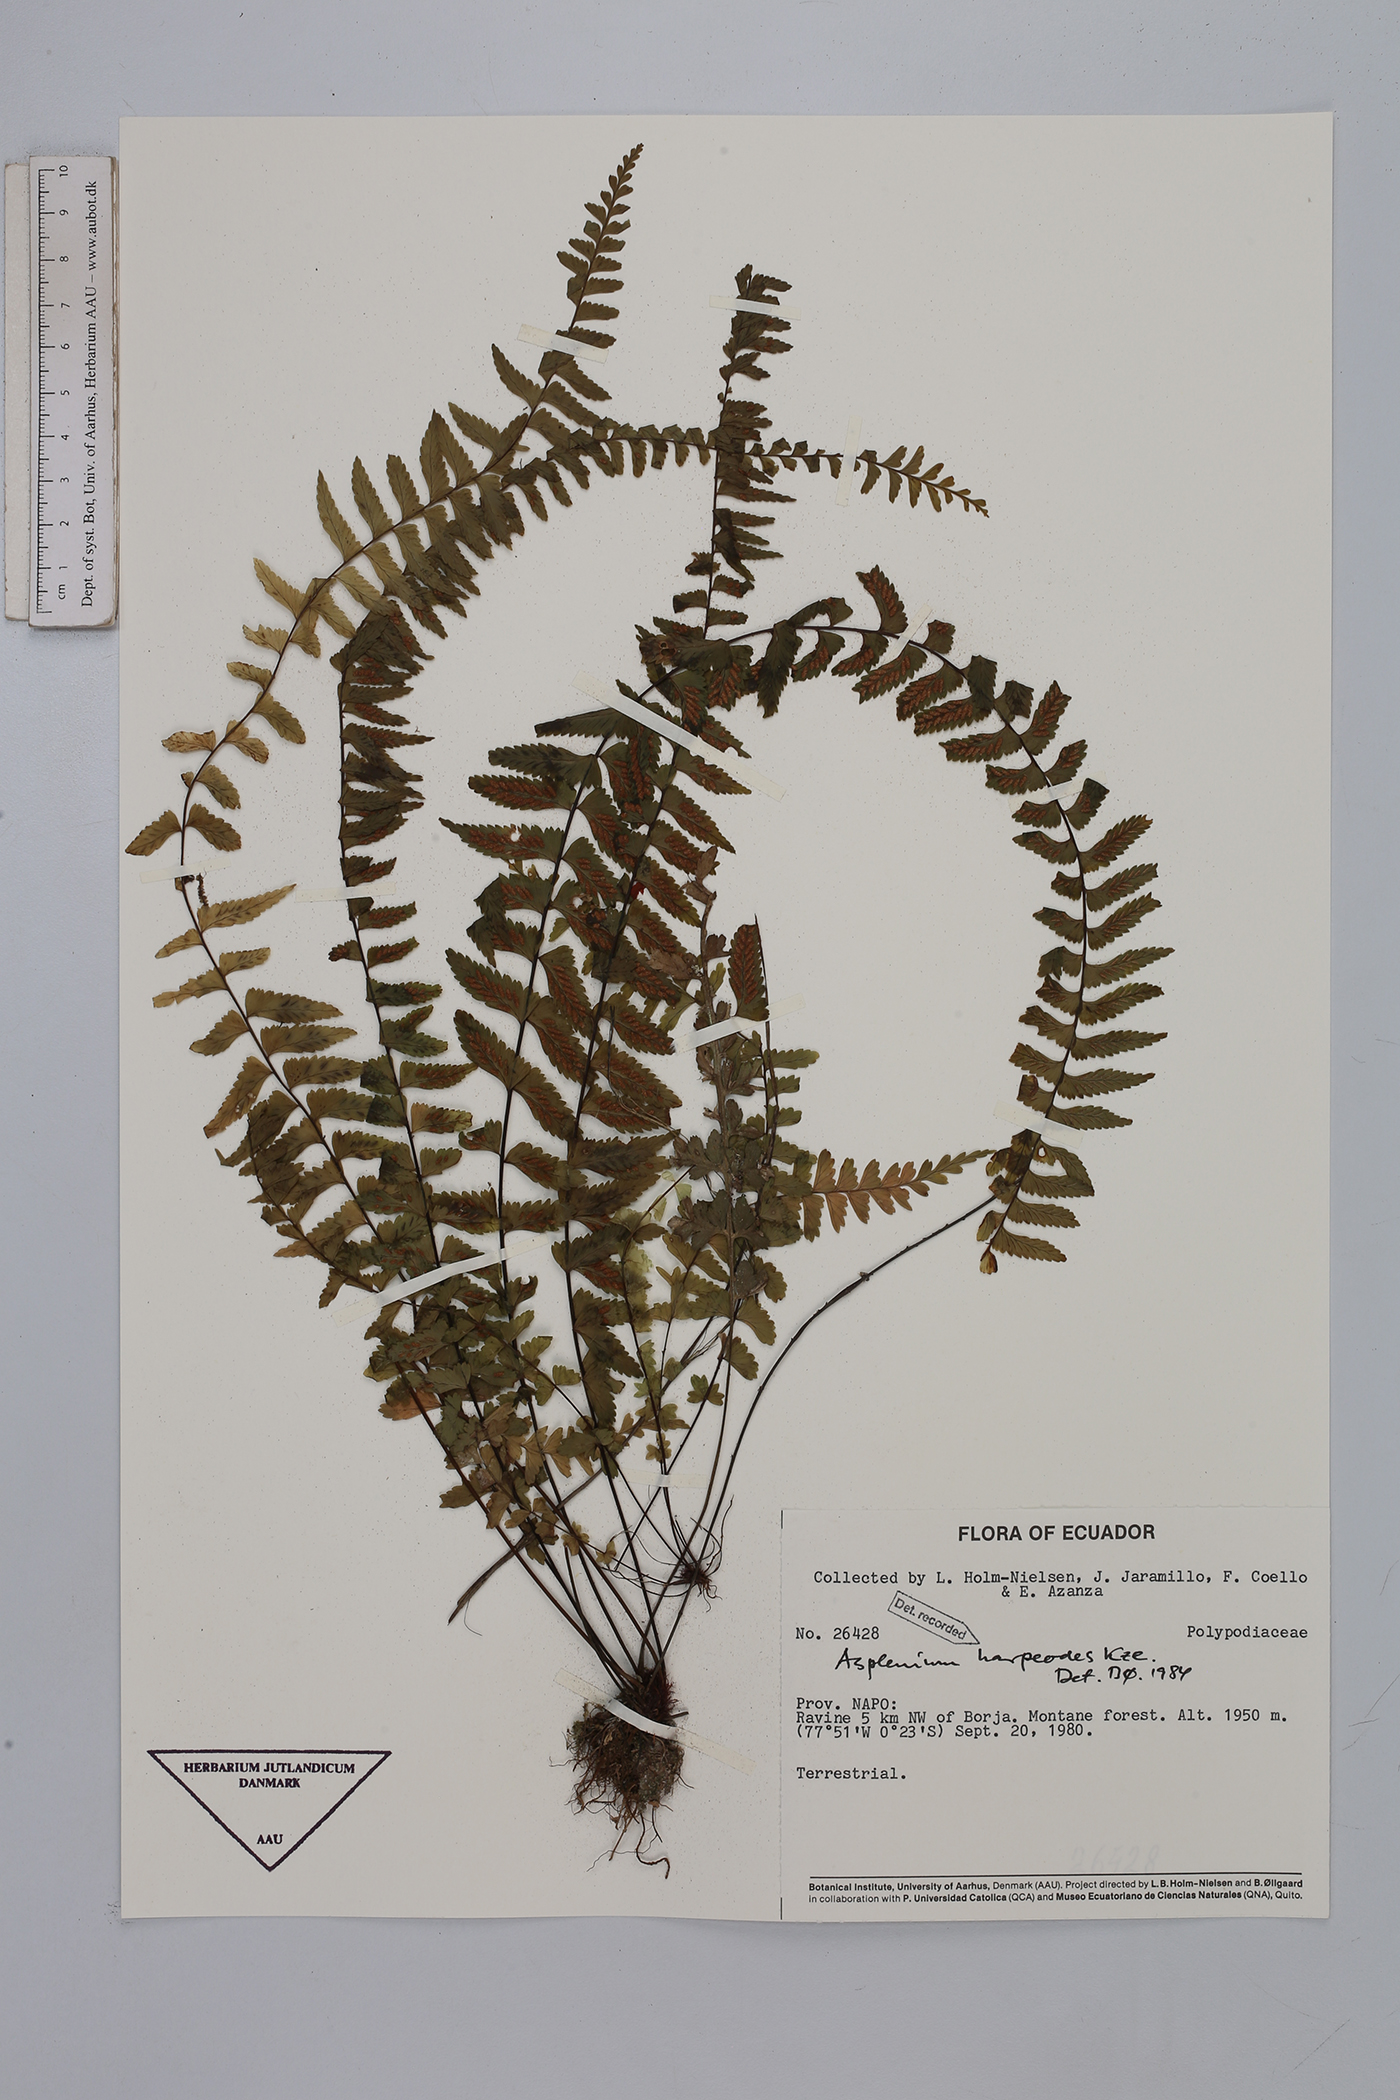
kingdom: Plantae
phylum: Tracheophyta
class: Polypodiopsida
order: Polypodiales
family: Aspleniaceae
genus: Asplenium
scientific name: Asplenium harpeodes
